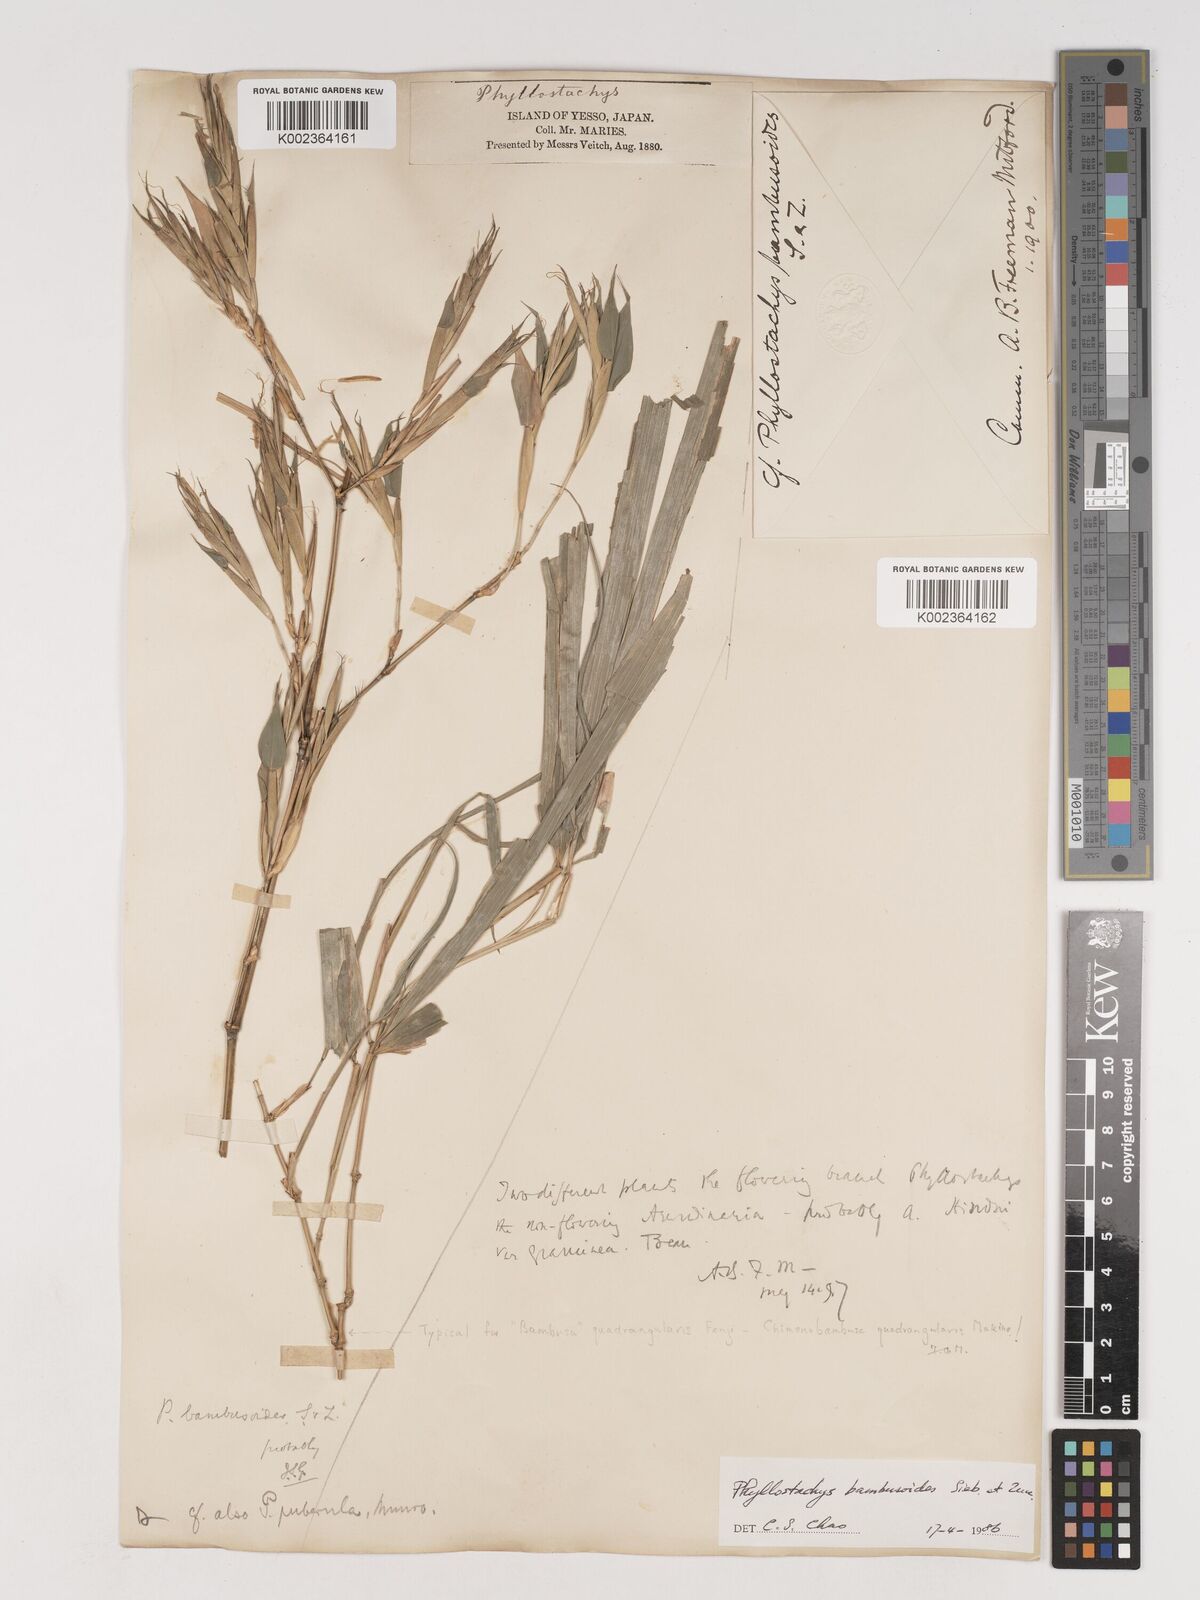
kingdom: Plantae
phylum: Tracheophyta
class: Liliopsida
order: Poales
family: Poaceae
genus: Phyllostachys
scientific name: Phyllostachys reticulata
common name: Bamboo
